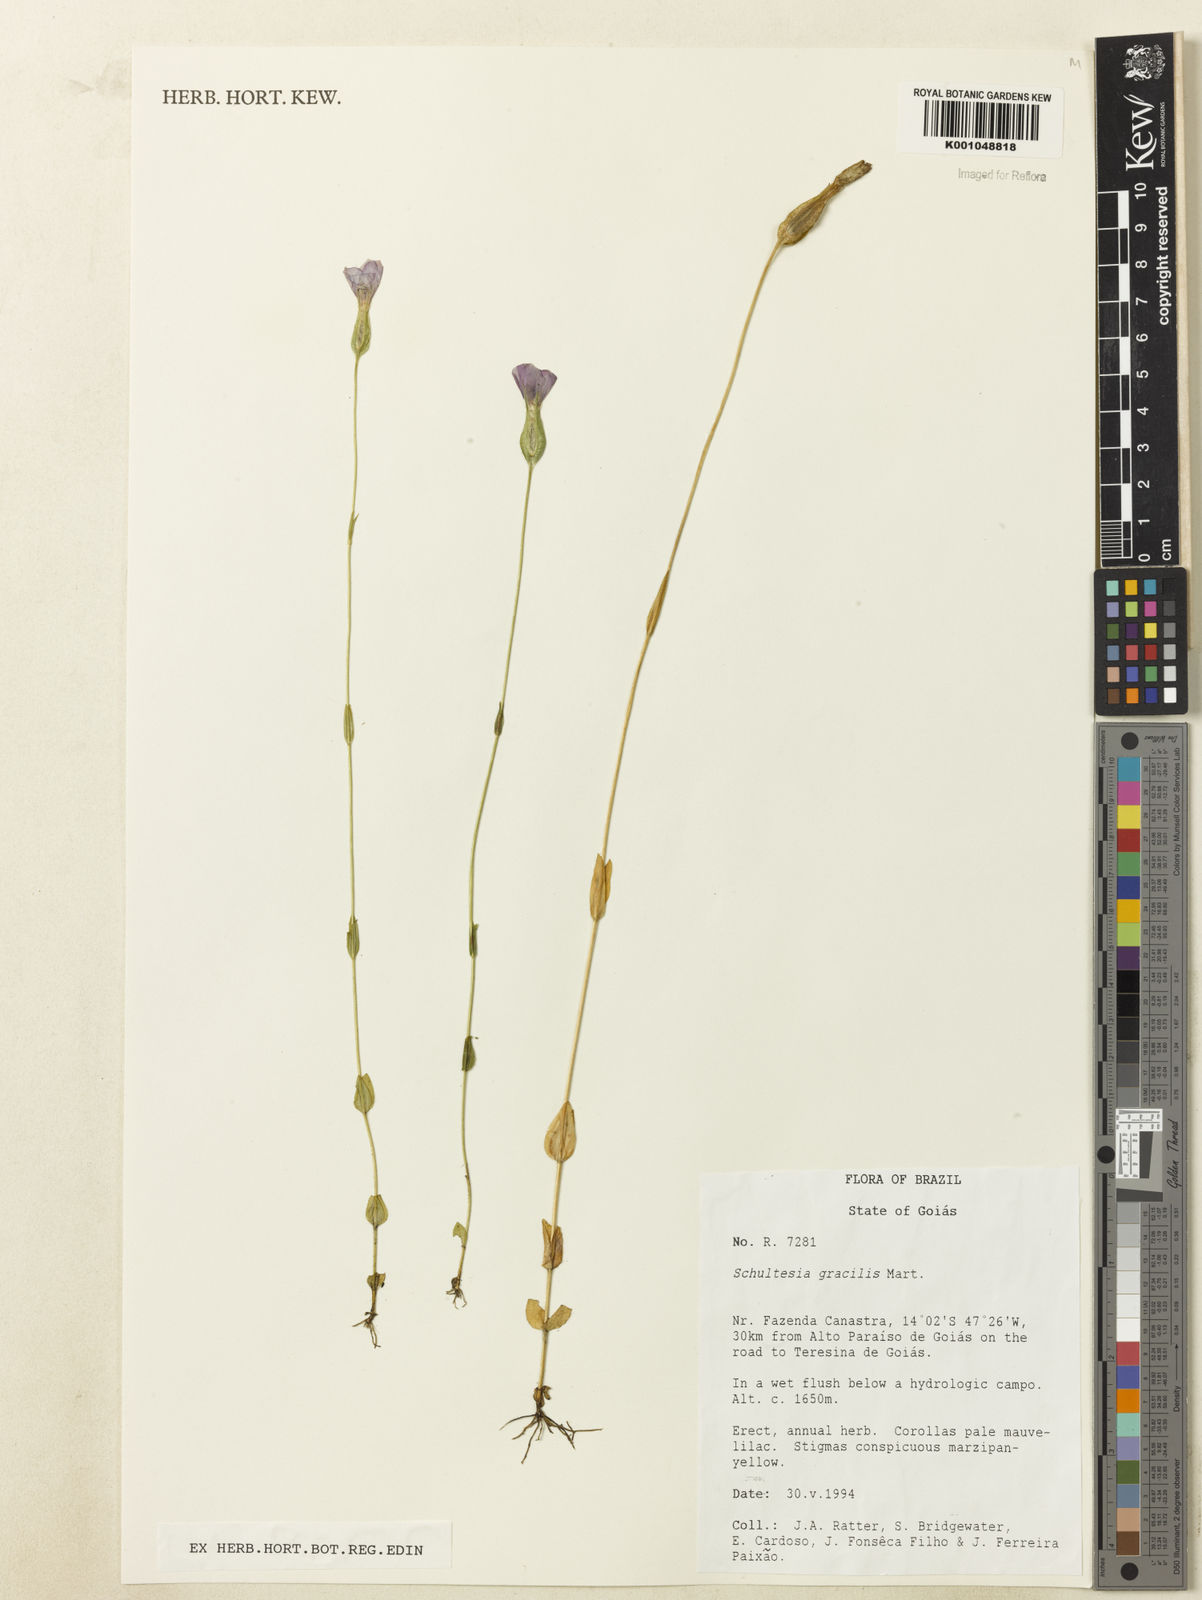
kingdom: Plantae
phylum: Tracheophyta
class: Magnoliopsida
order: Gentianales
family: Gentianaceae
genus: Schultesia
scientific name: Schultesia gracilis
